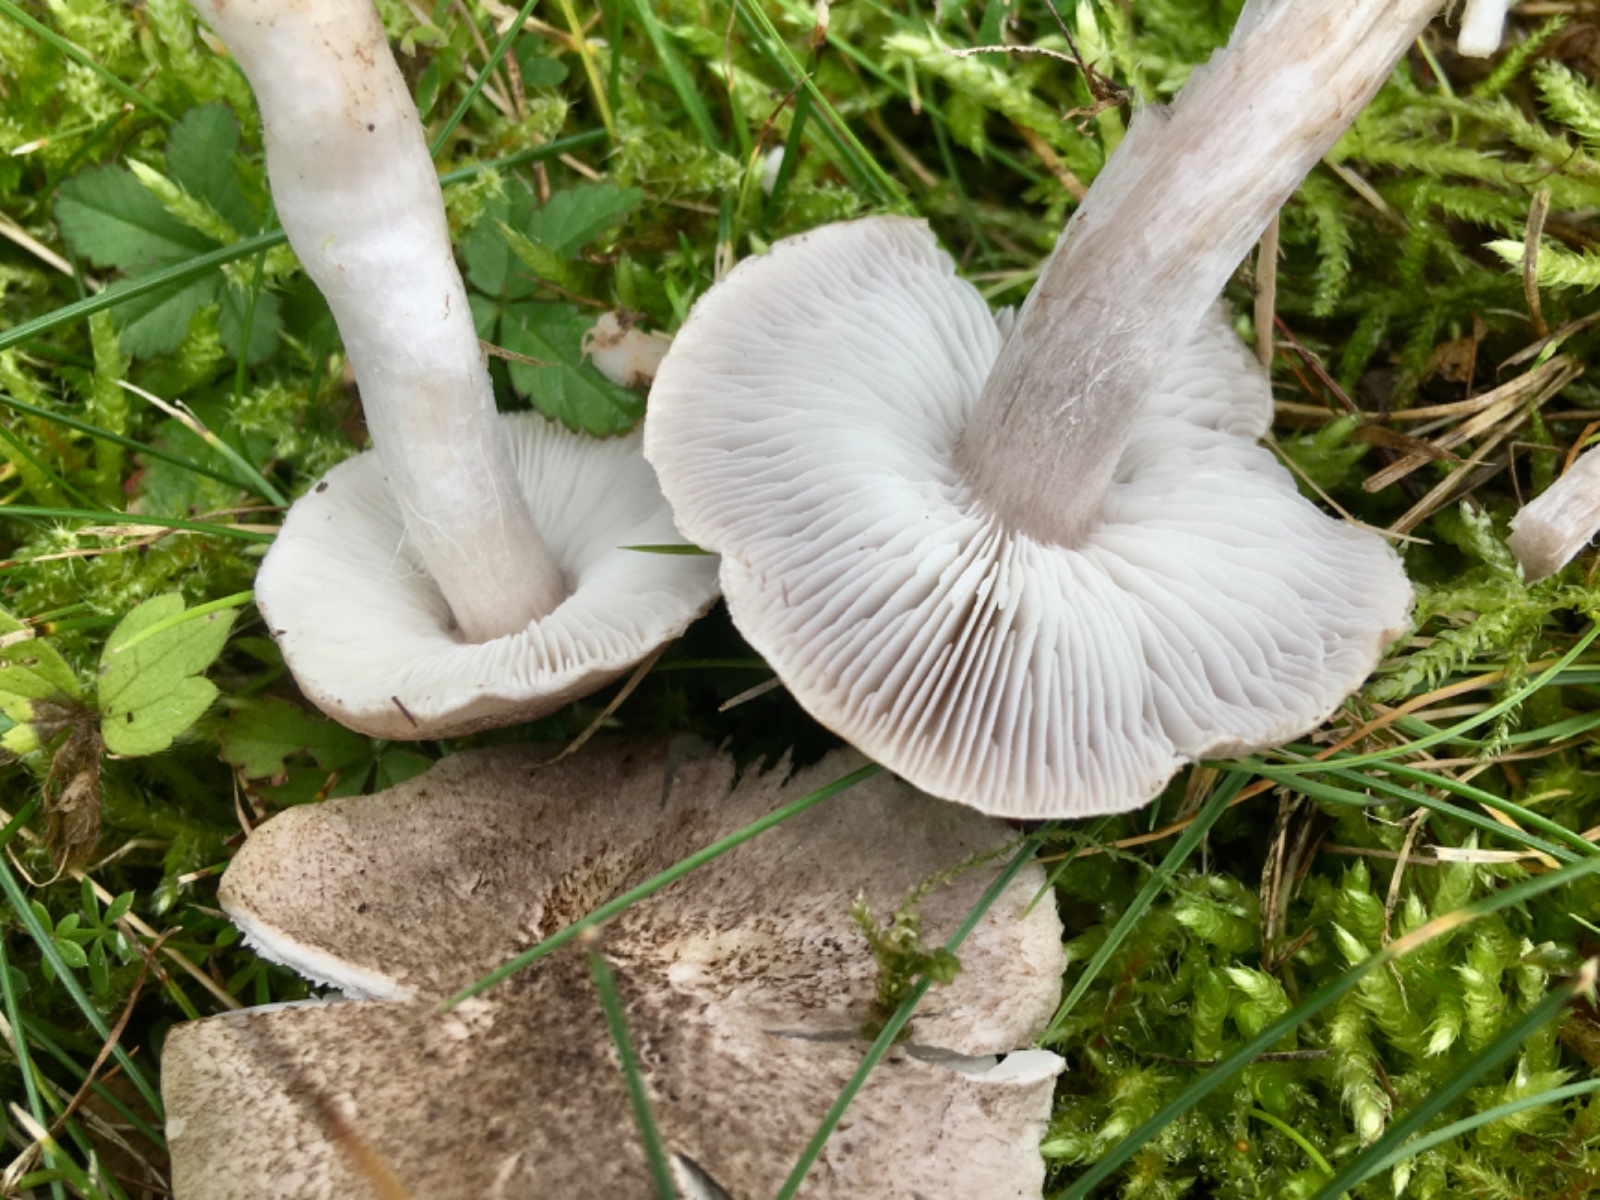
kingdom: Fungi
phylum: Basidiomycota
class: Agaricomycetes
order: Agaricales
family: Tricholomataceae
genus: Tricholoma
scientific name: Tricholoma argyraceum
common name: slør-ridderhat
